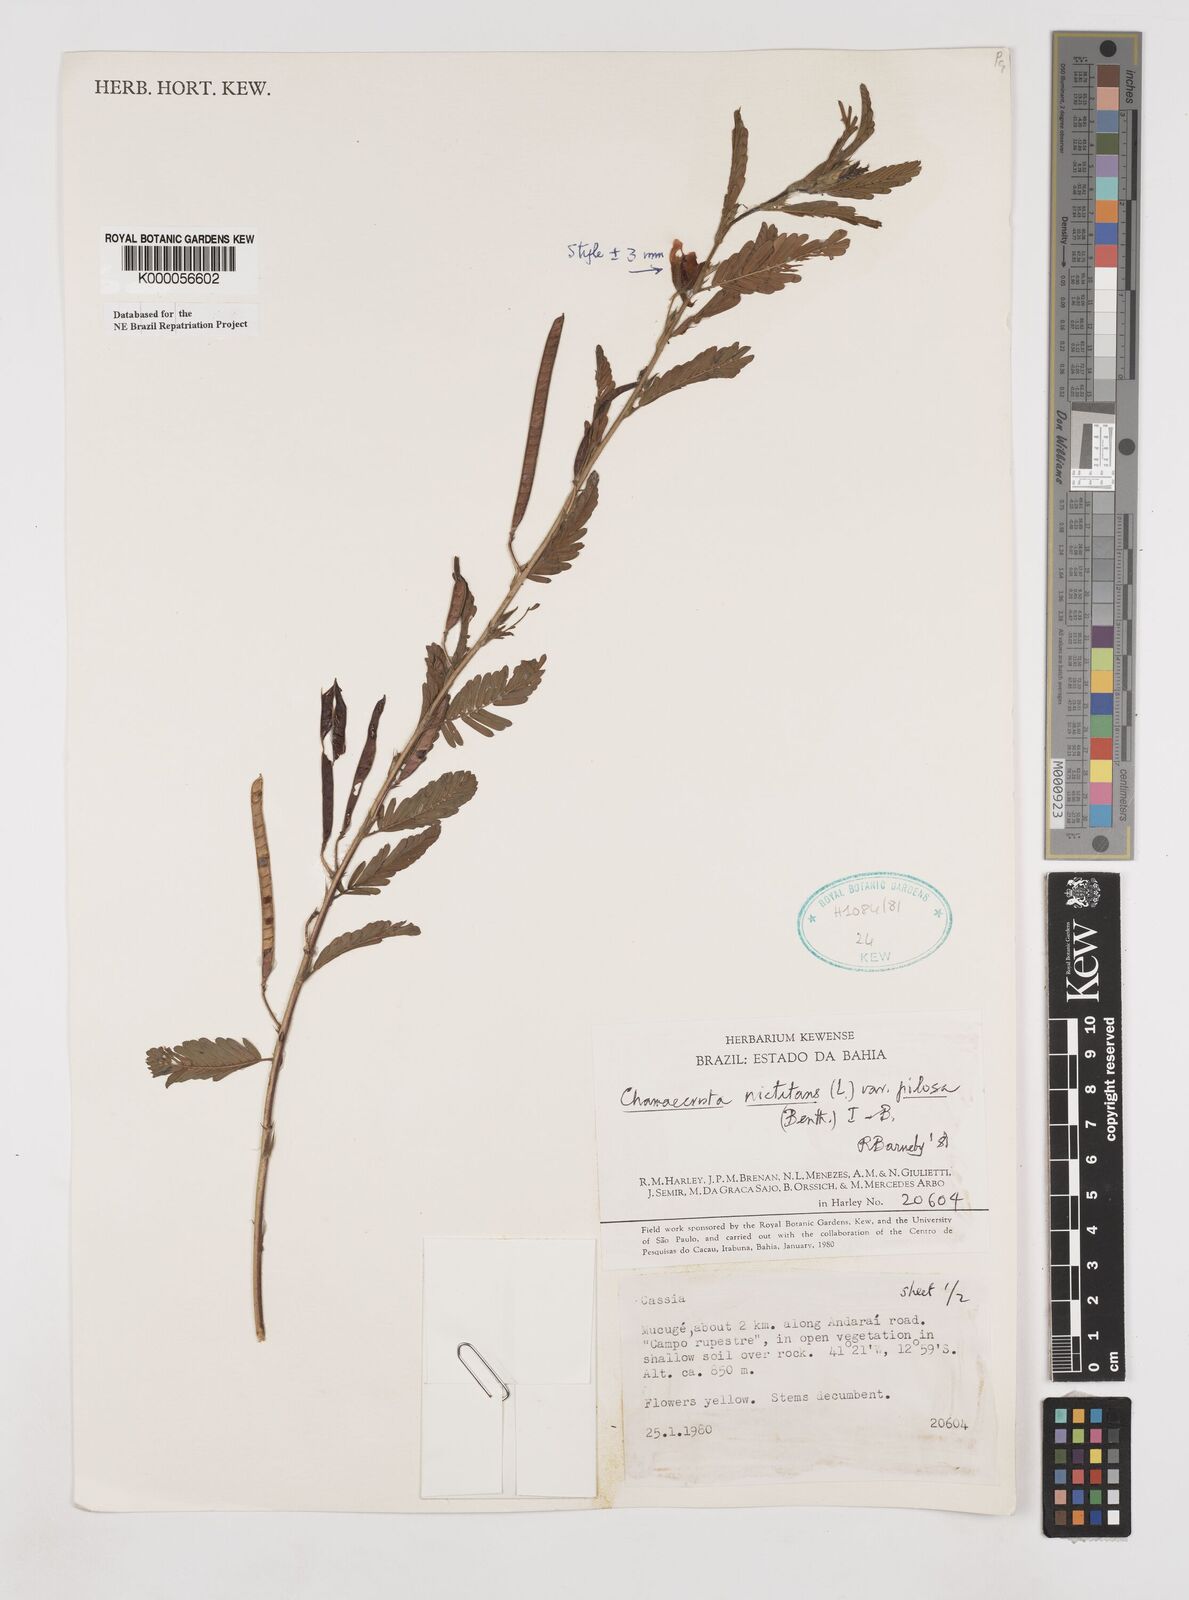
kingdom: Plantae
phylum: Tracheophyta
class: Magnoliopsida
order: Fabales
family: Fabaceae
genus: Chamaecrista
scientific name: Chamaecrista nictitans
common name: Sensitive cassia
